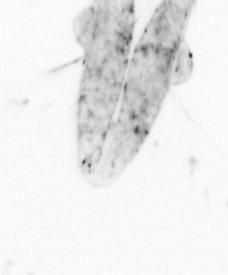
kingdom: Animalia
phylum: Chaetognatha
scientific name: Chaetognatha
